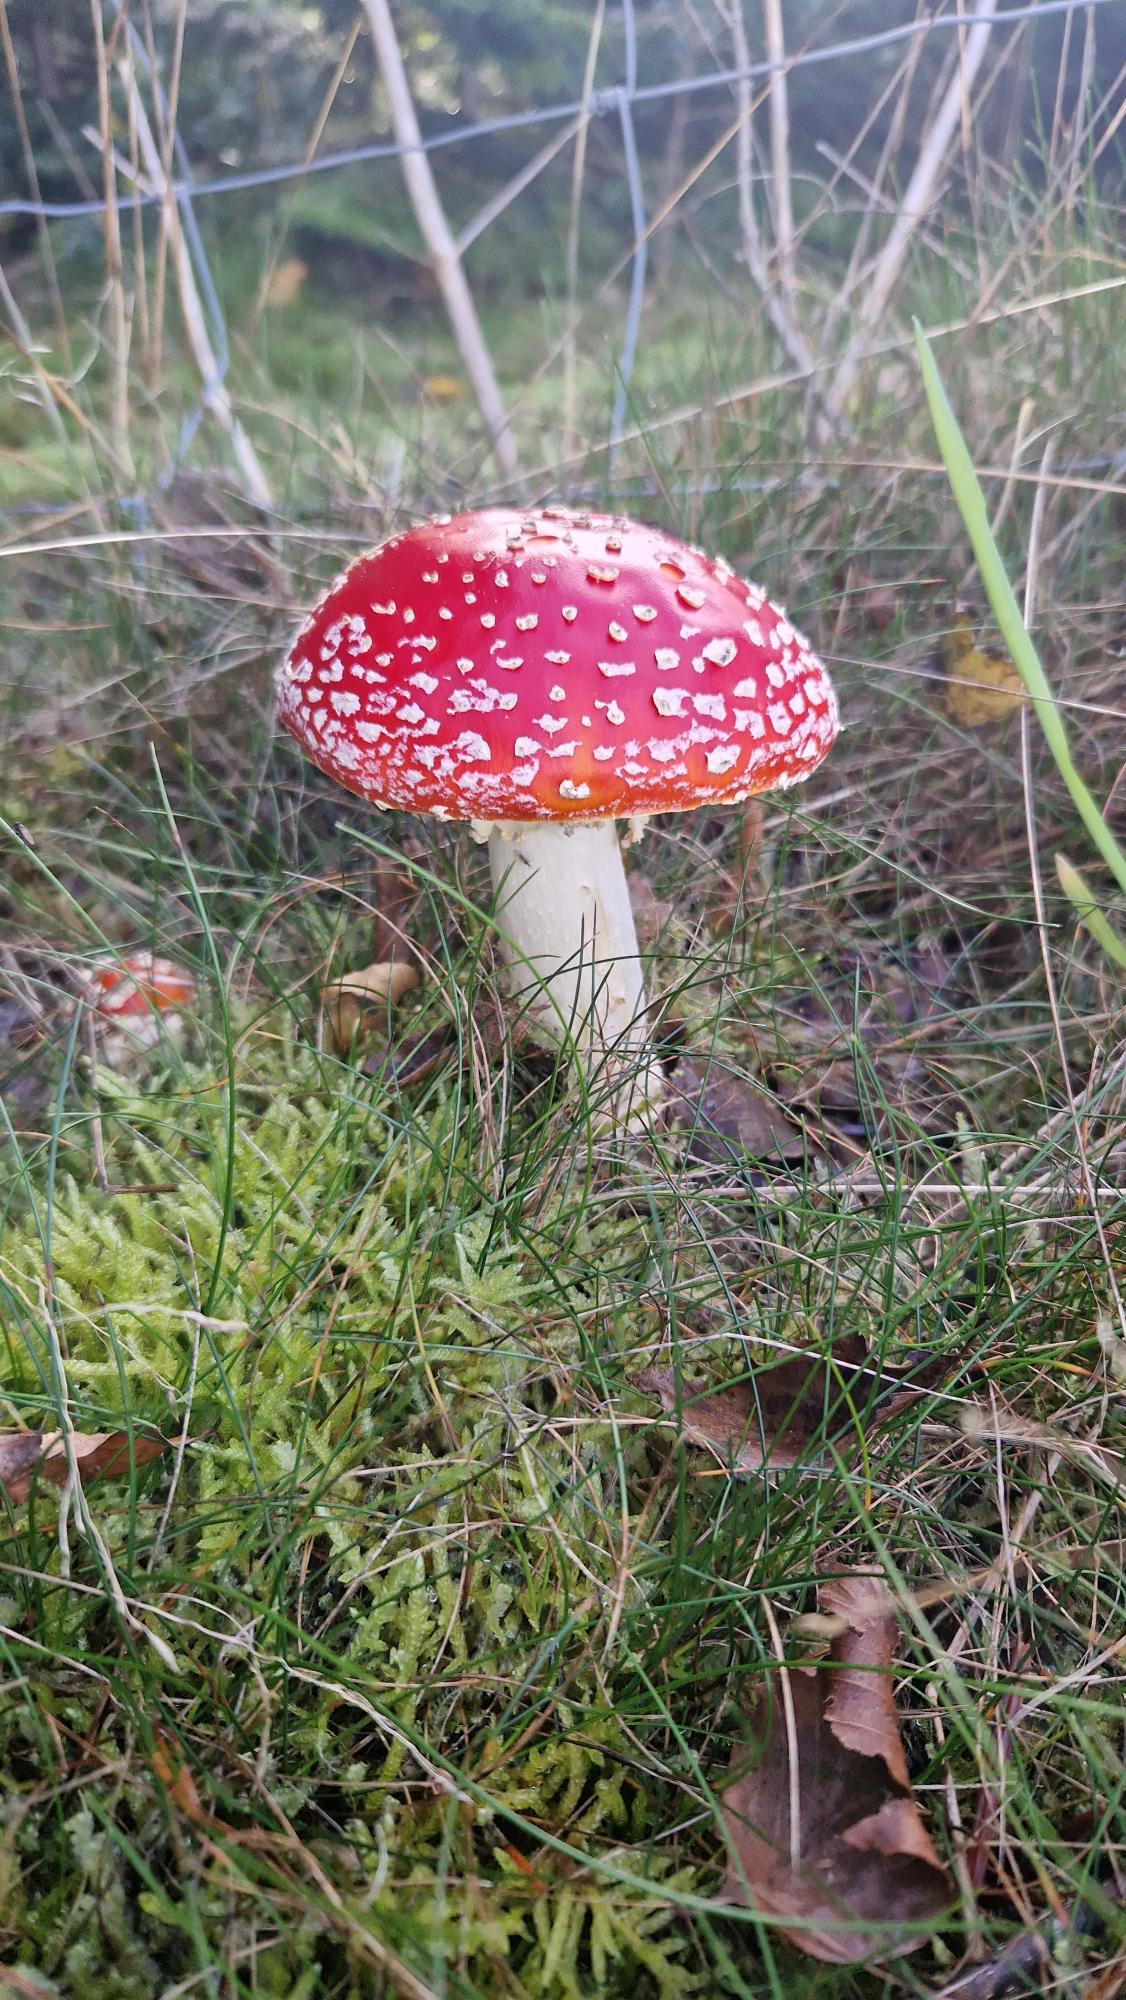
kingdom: Fungi
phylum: Basidiomycota
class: Agaricomycetes
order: Agaricales
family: Amanitaceae
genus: Amanita
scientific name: Amanita muscaria
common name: Rød fluesvamp
